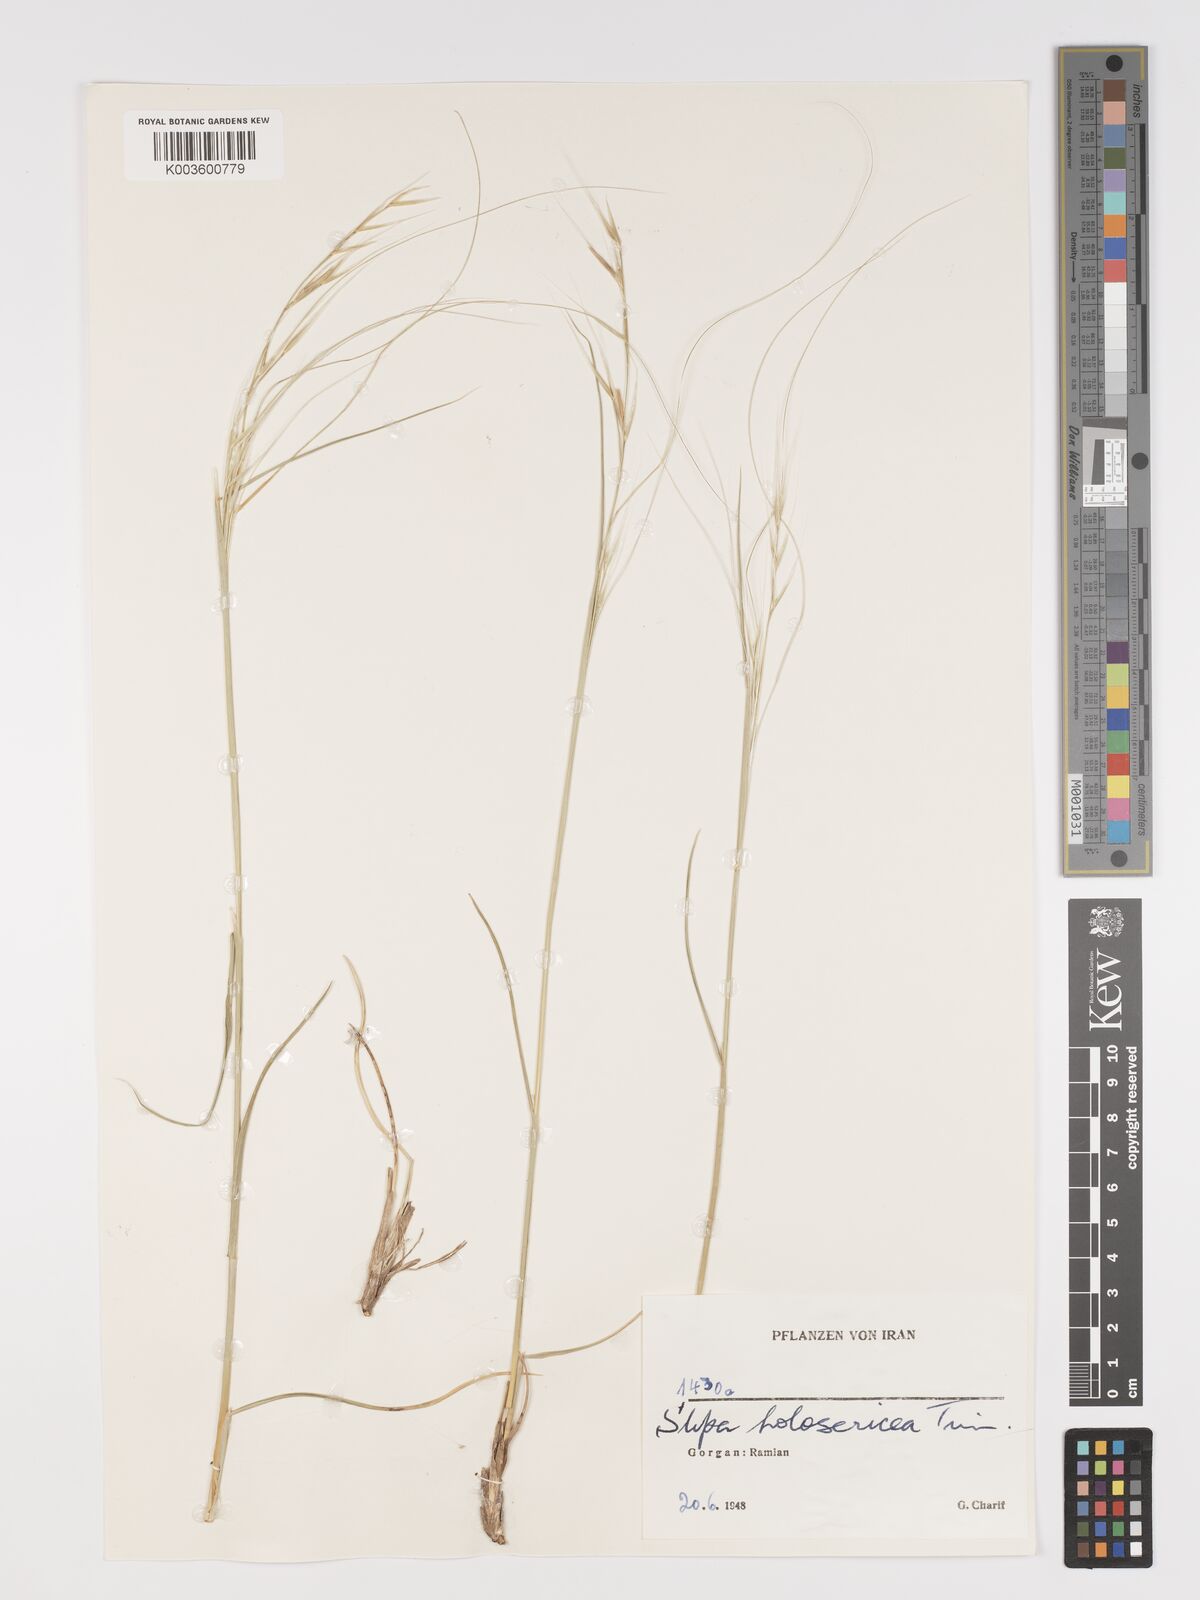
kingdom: Plantae
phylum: Tracheophyta
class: Liliopsida
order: Poales
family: Poaceae
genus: Stipa
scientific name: Stipa lagascae
